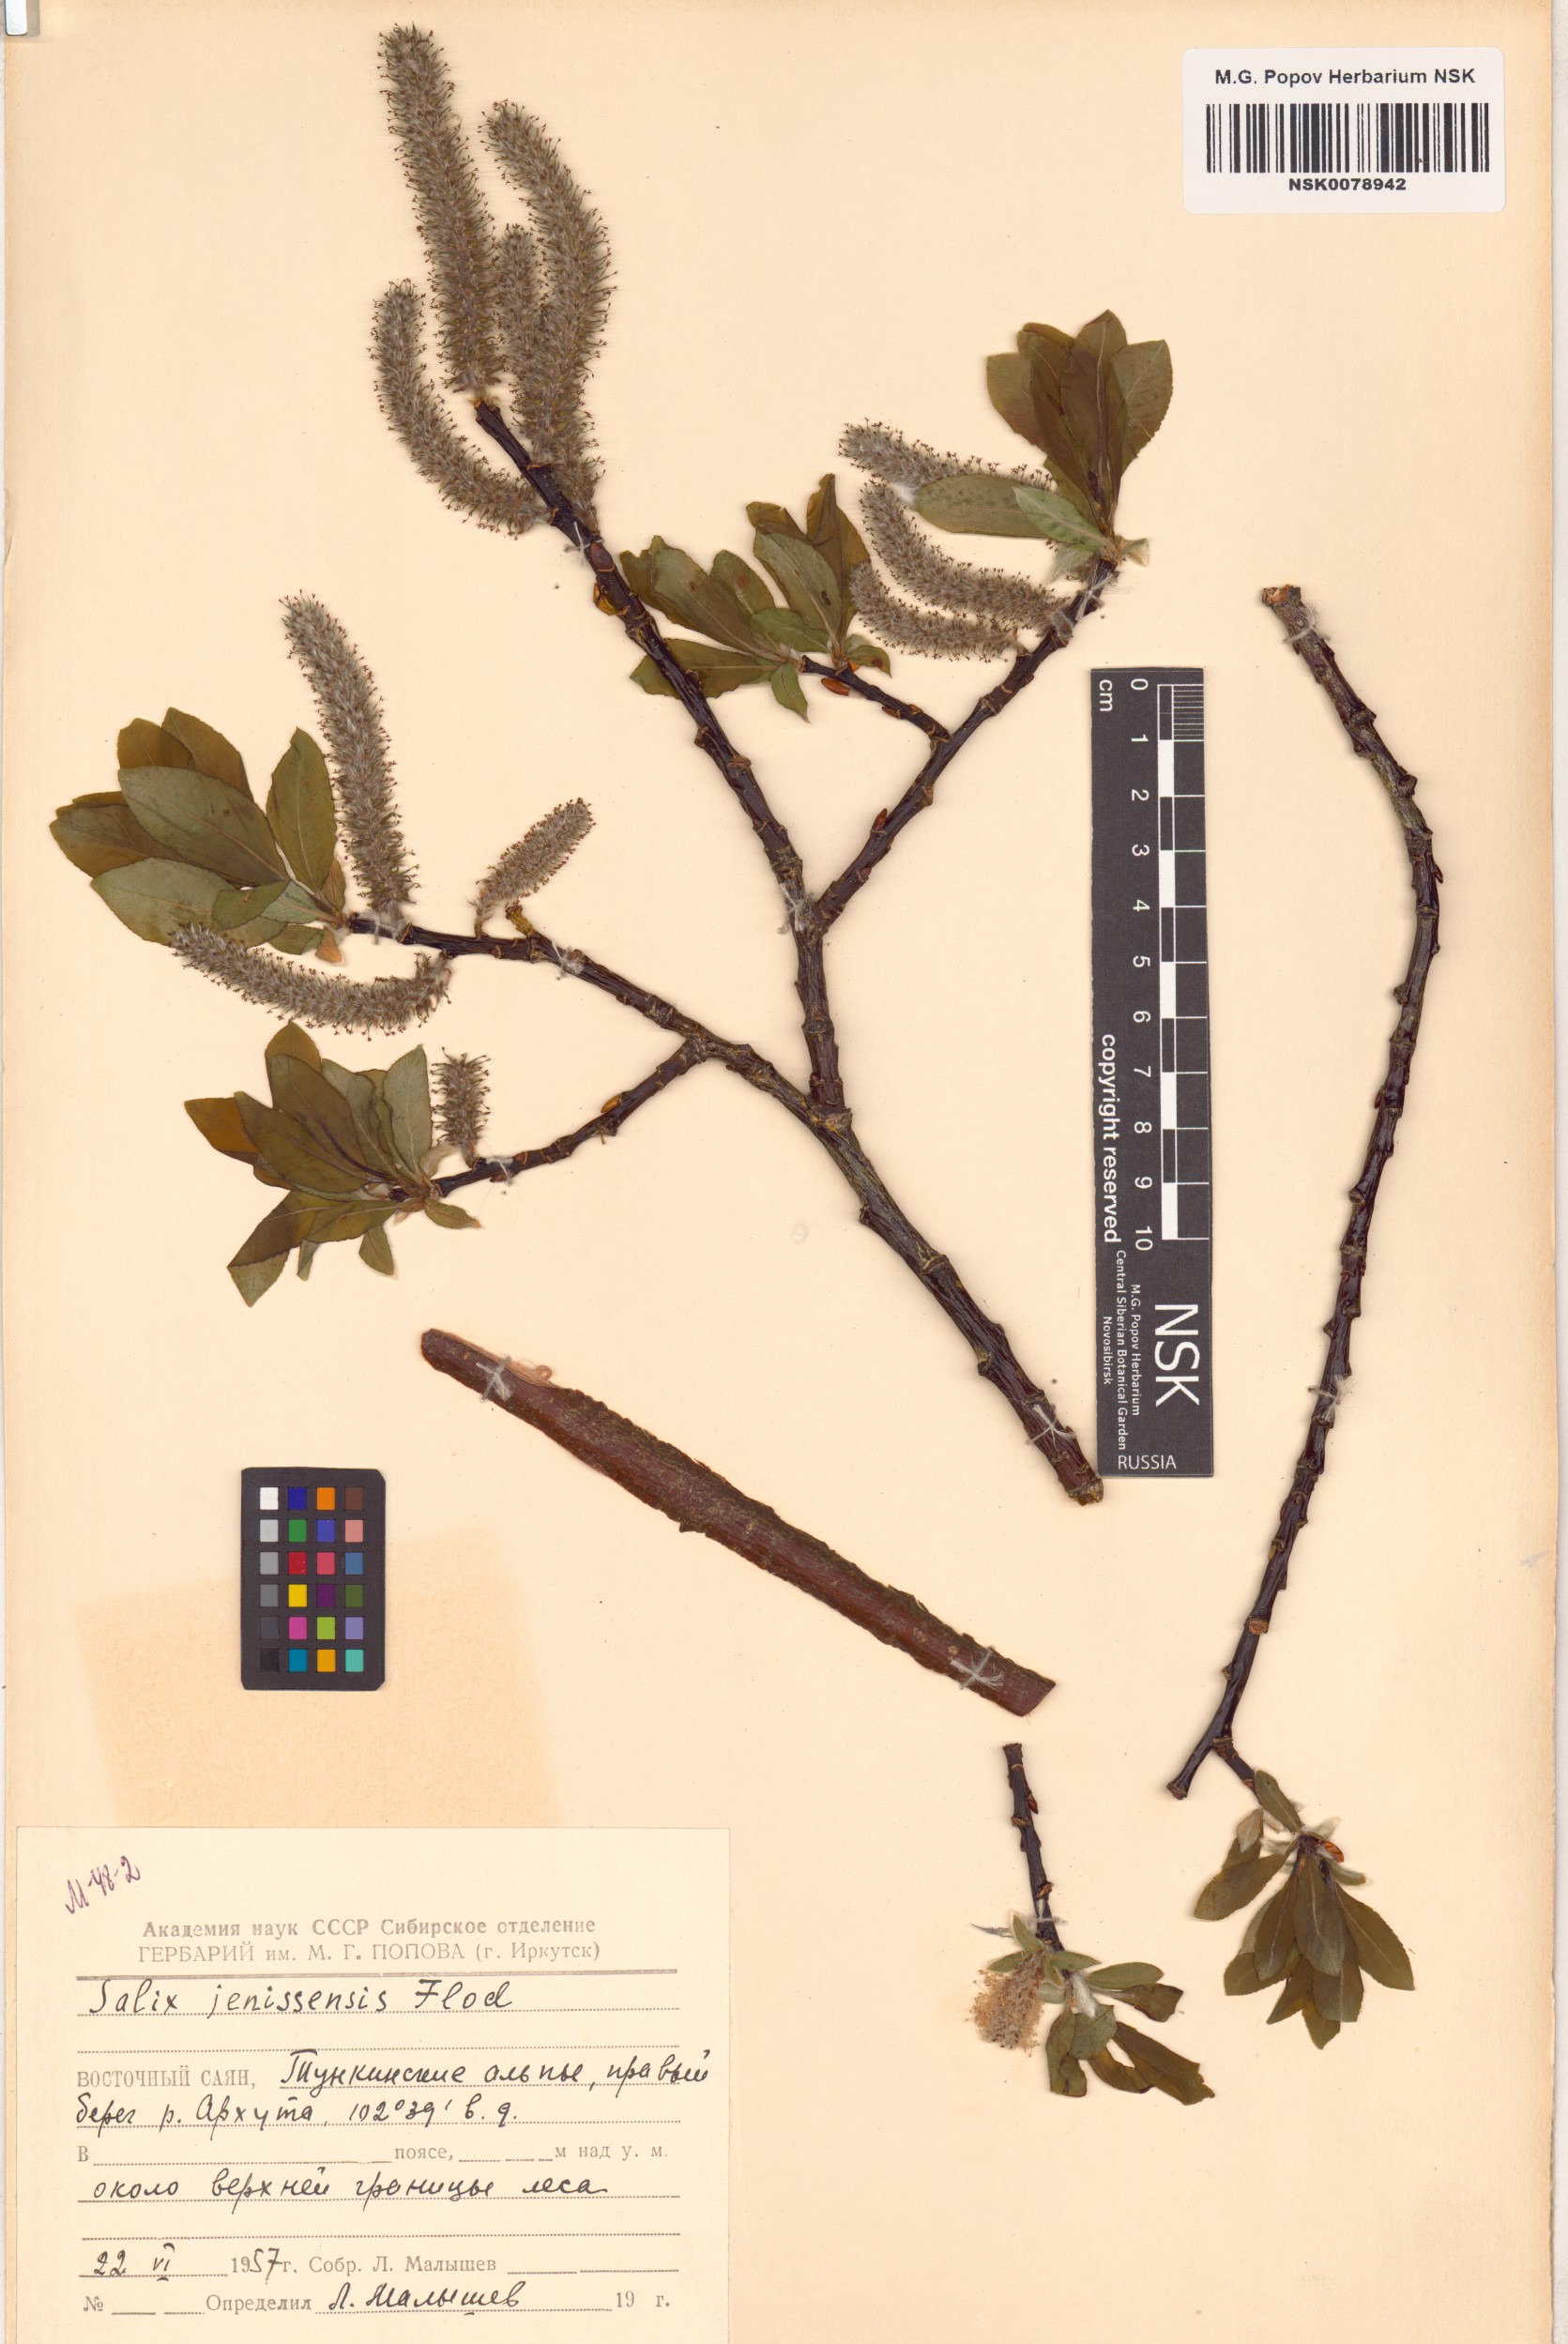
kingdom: Plantae
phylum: Tracheophyta
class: Magnoliopsida
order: Malpighiales
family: Salicaceae
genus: Salix
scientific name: Salix jenisseensis
